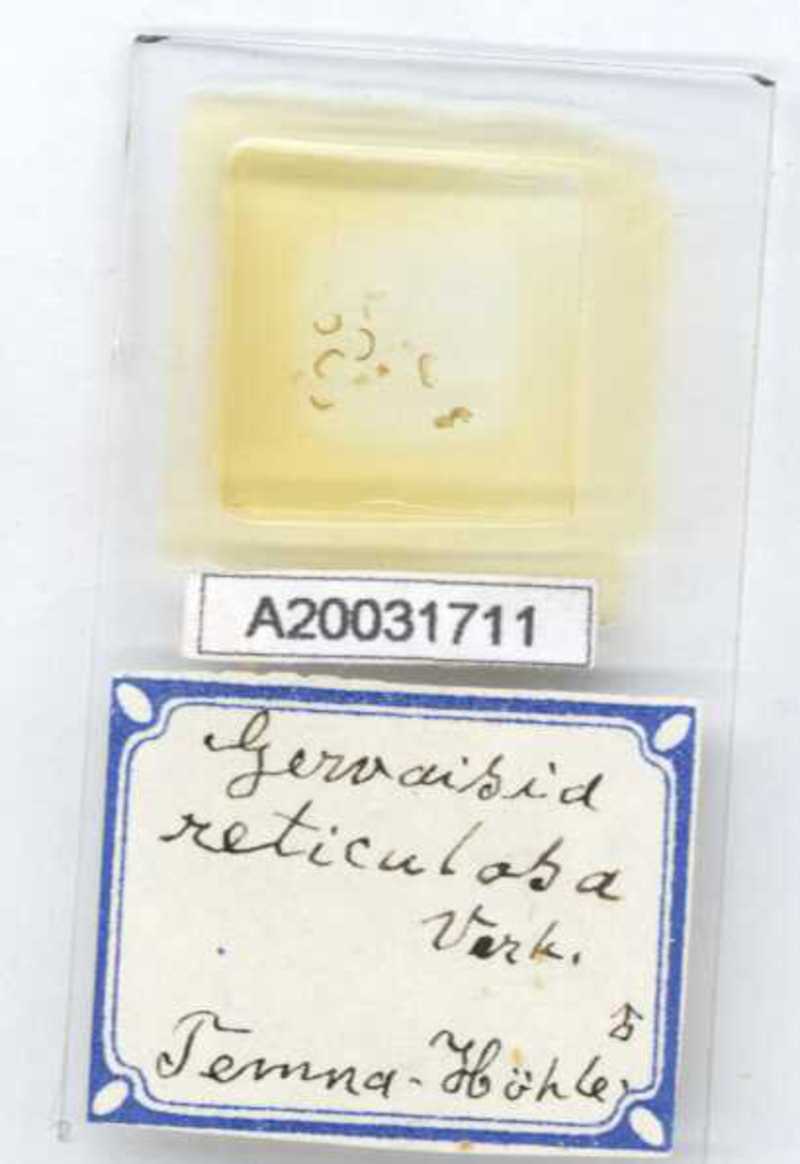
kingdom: Animalia
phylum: Arthropoda
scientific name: Arthropoda
